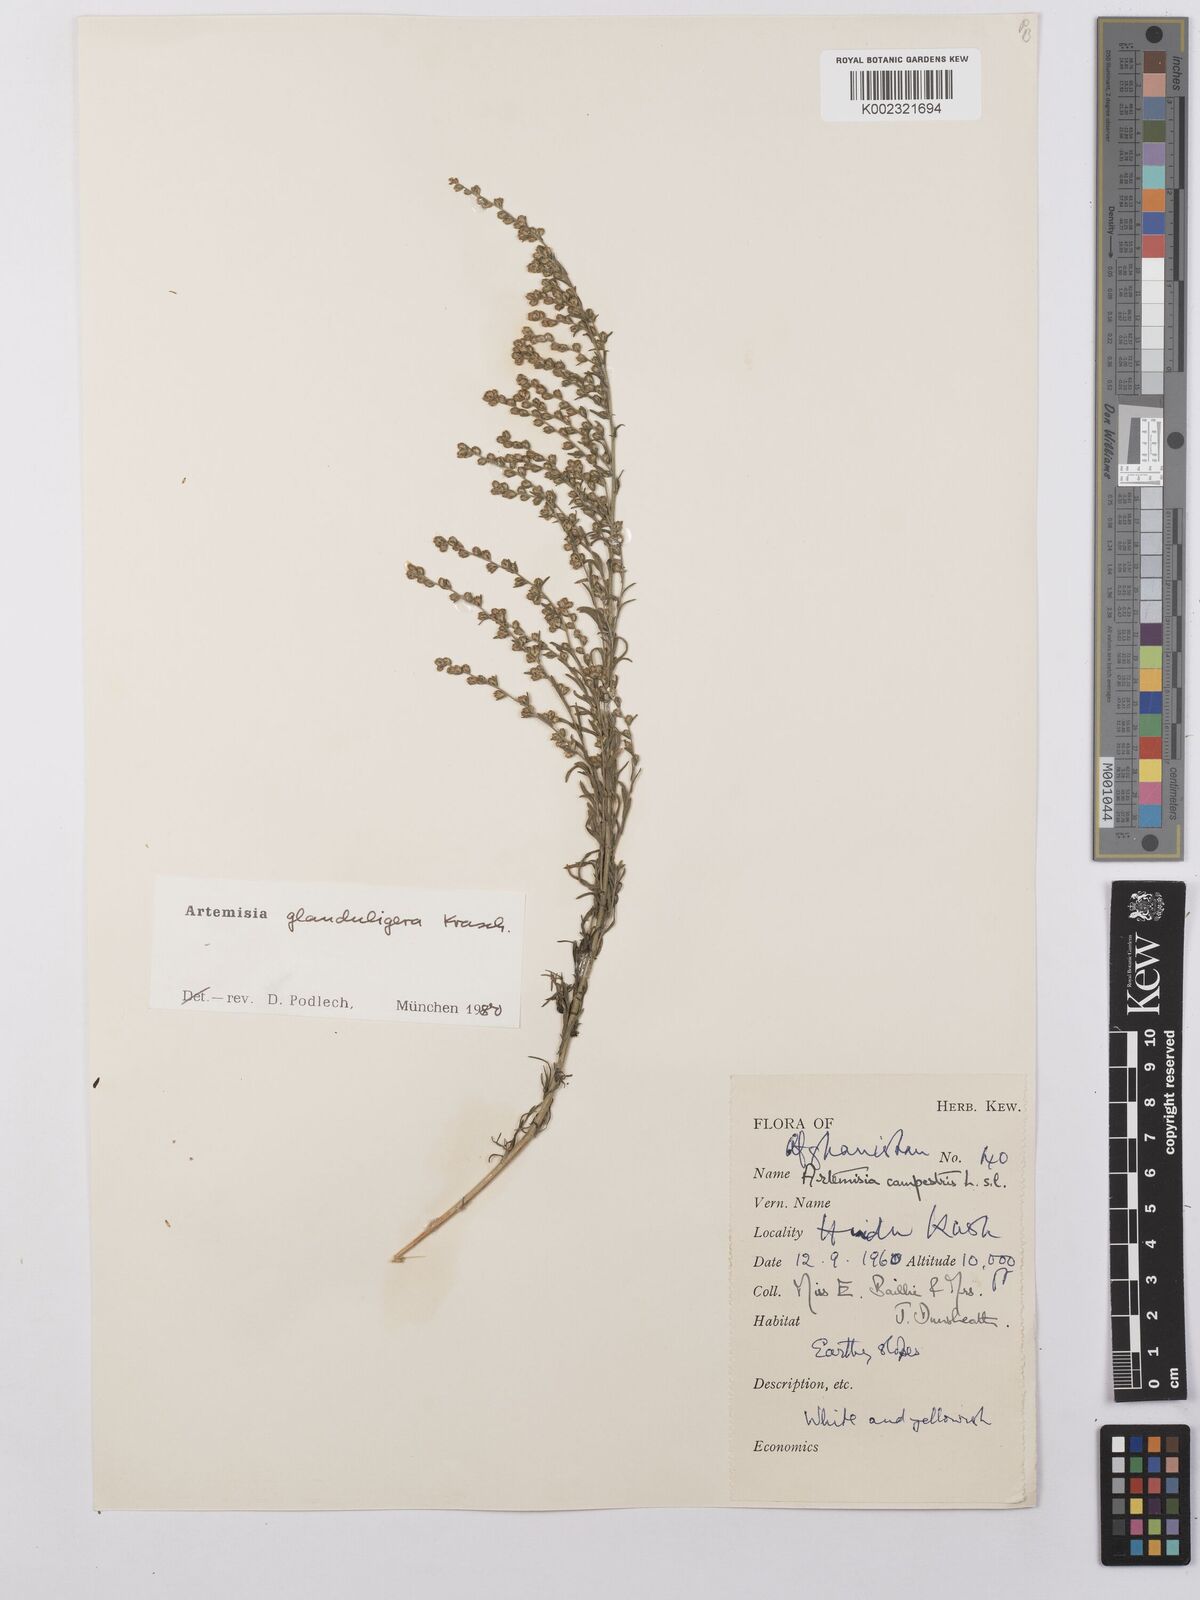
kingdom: Plantae
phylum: Tracheophyta
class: Magnoliopsida
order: Asterales
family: Asteraceae
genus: Artemisia
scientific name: Artemisia glanduligera
